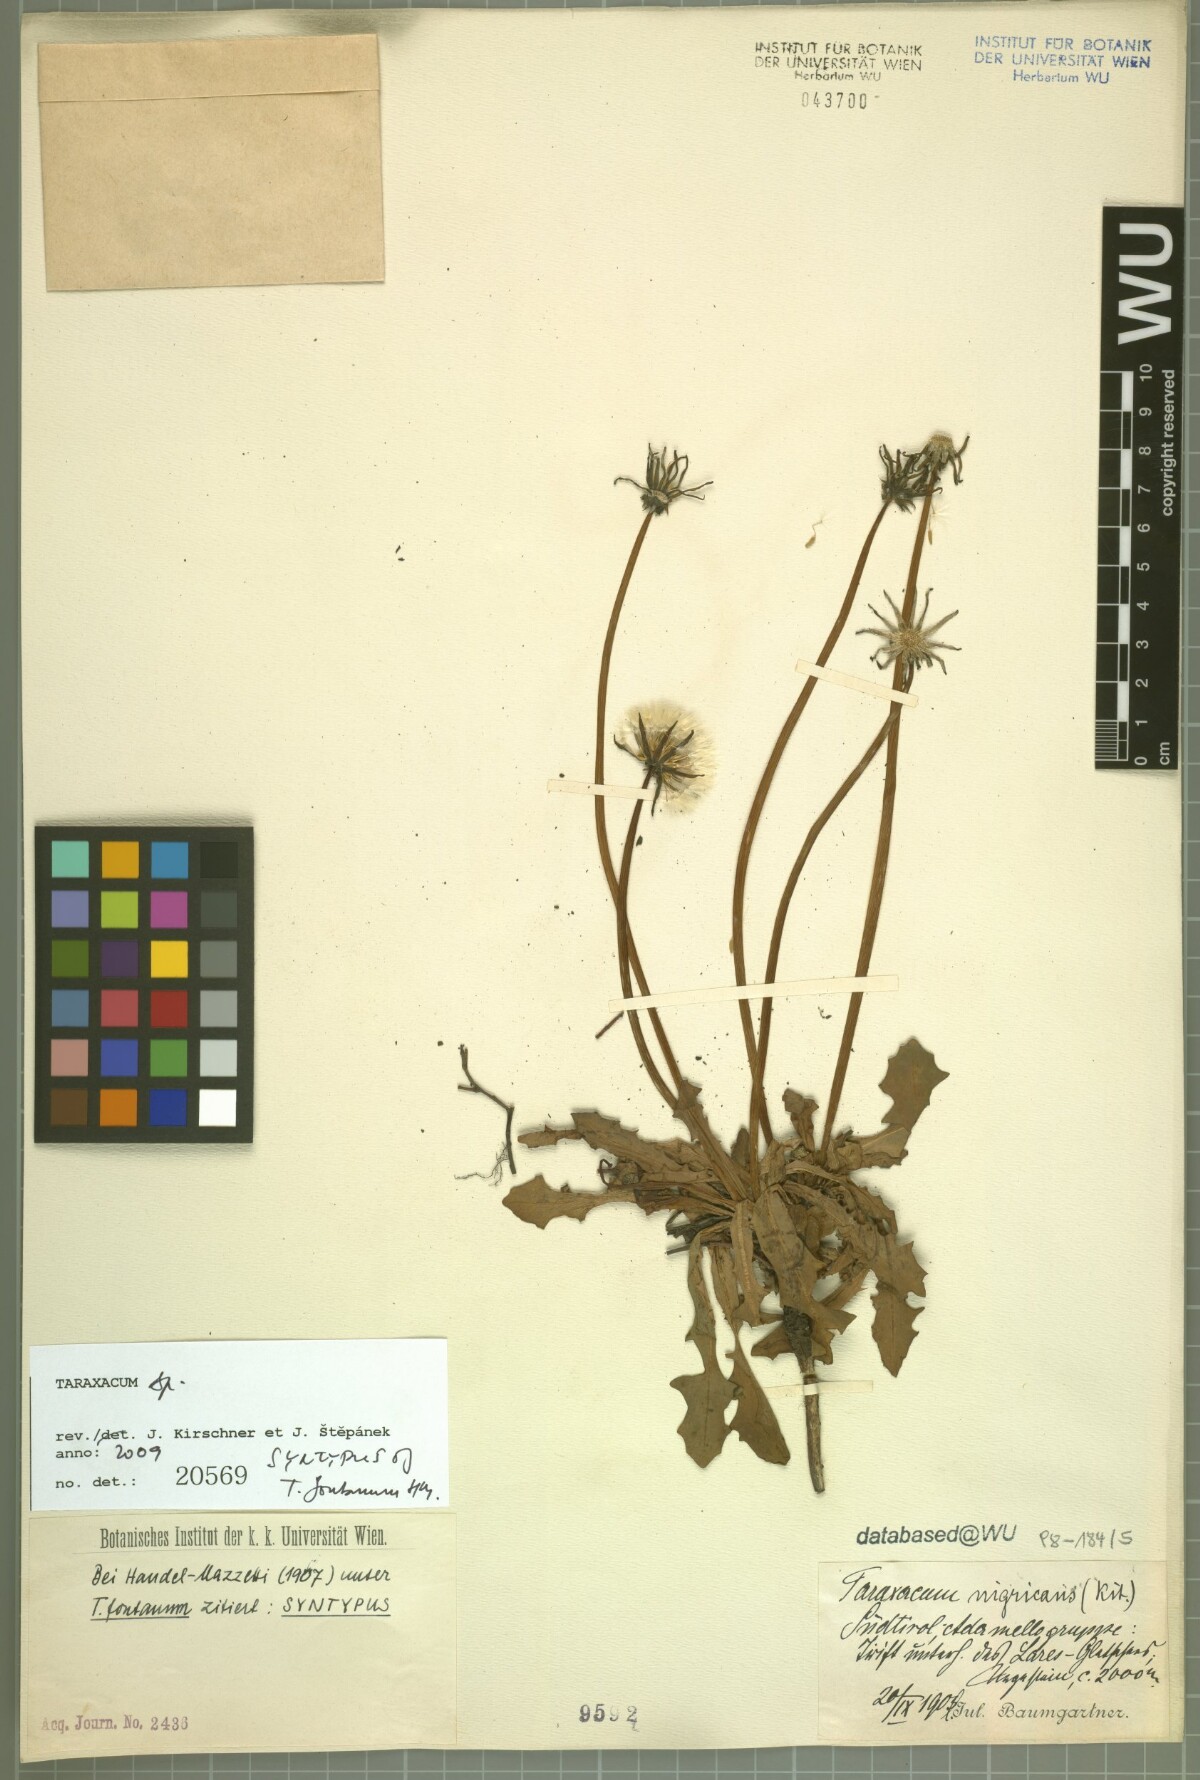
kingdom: Plantae
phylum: Tracheophyta
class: Magnoliopsida
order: Asterales
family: Asteraceae
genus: Taraxacum
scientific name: Taraxacum fontanum
